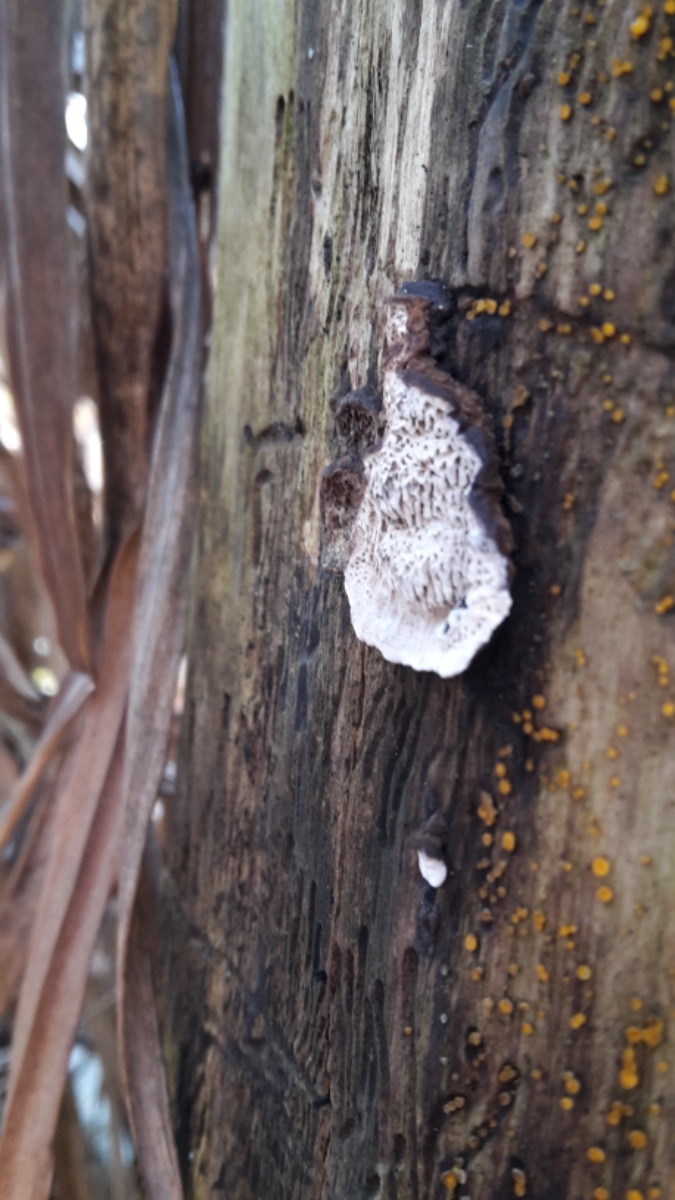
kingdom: Fungi
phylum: Basidiomycota
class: Agaricomycetes
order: Polyporales
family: Polyporaceae
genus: Podofomes
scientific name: Podofomes mollis
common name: blød begporesvamp
